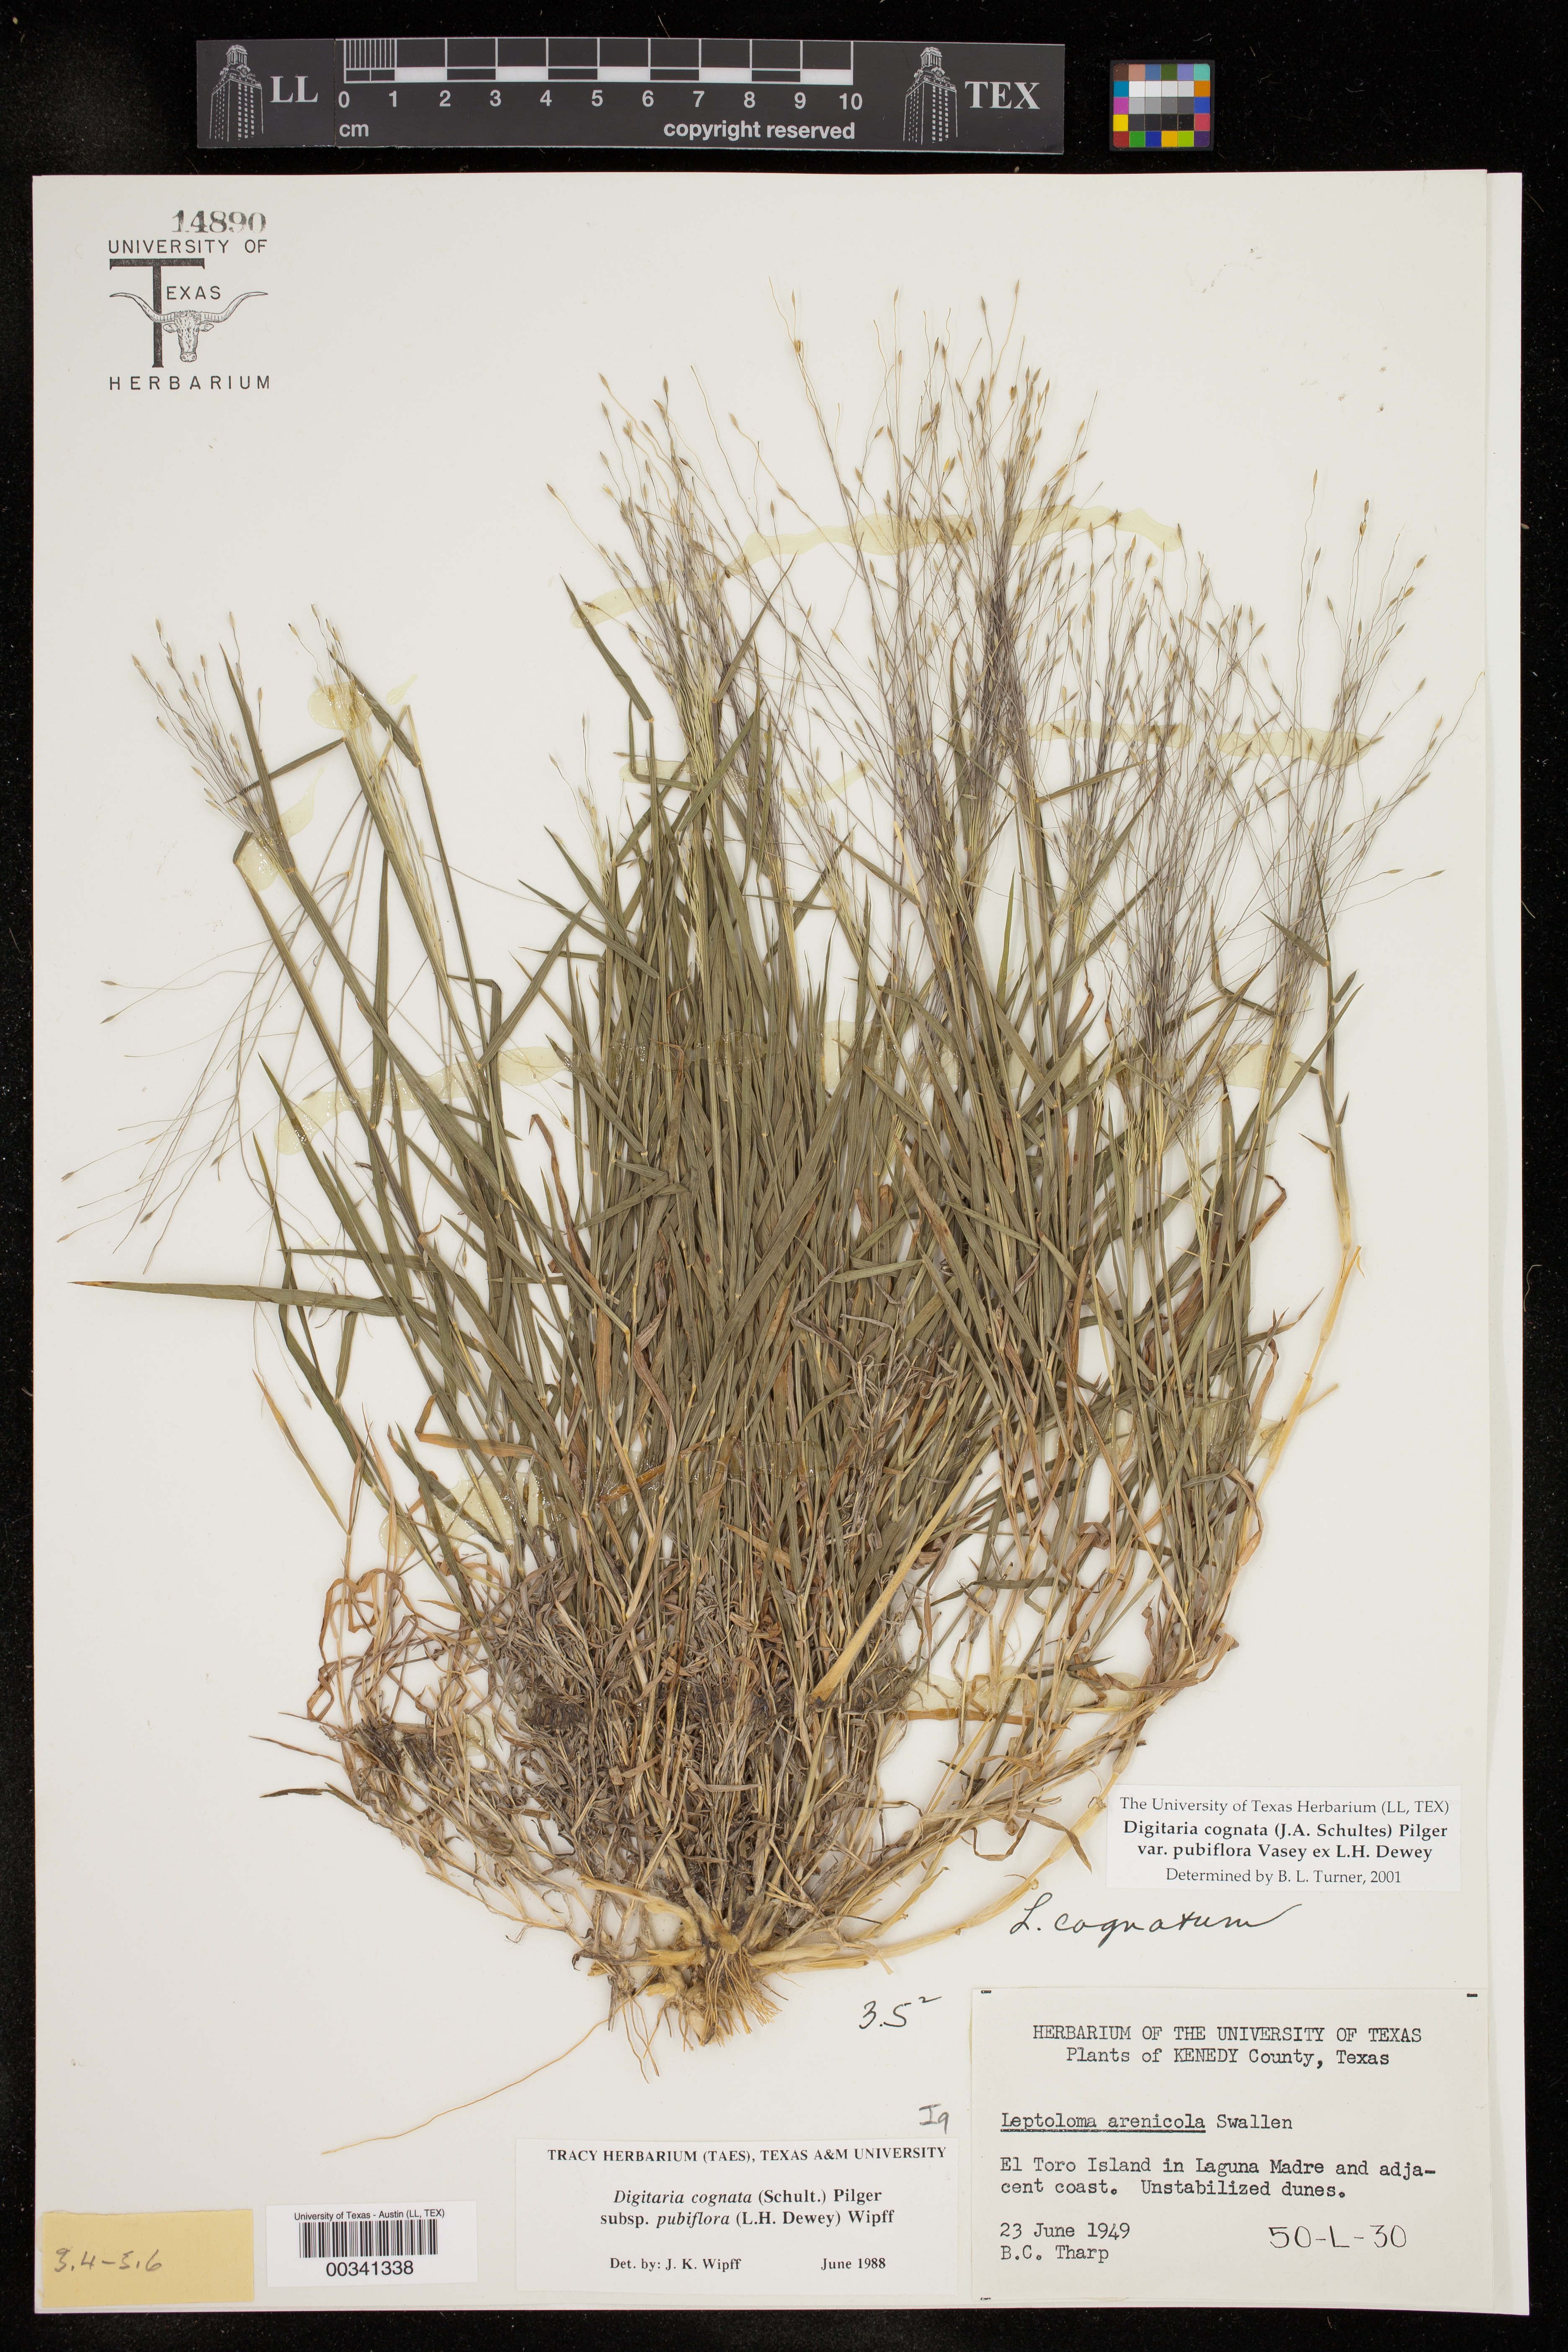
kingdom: Plantae
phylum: Tracheophyta
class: Liliopsida
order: Poales
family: Poaceae
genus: Digitaria
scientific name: Digitaria cognata
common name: Fall witchgrass
